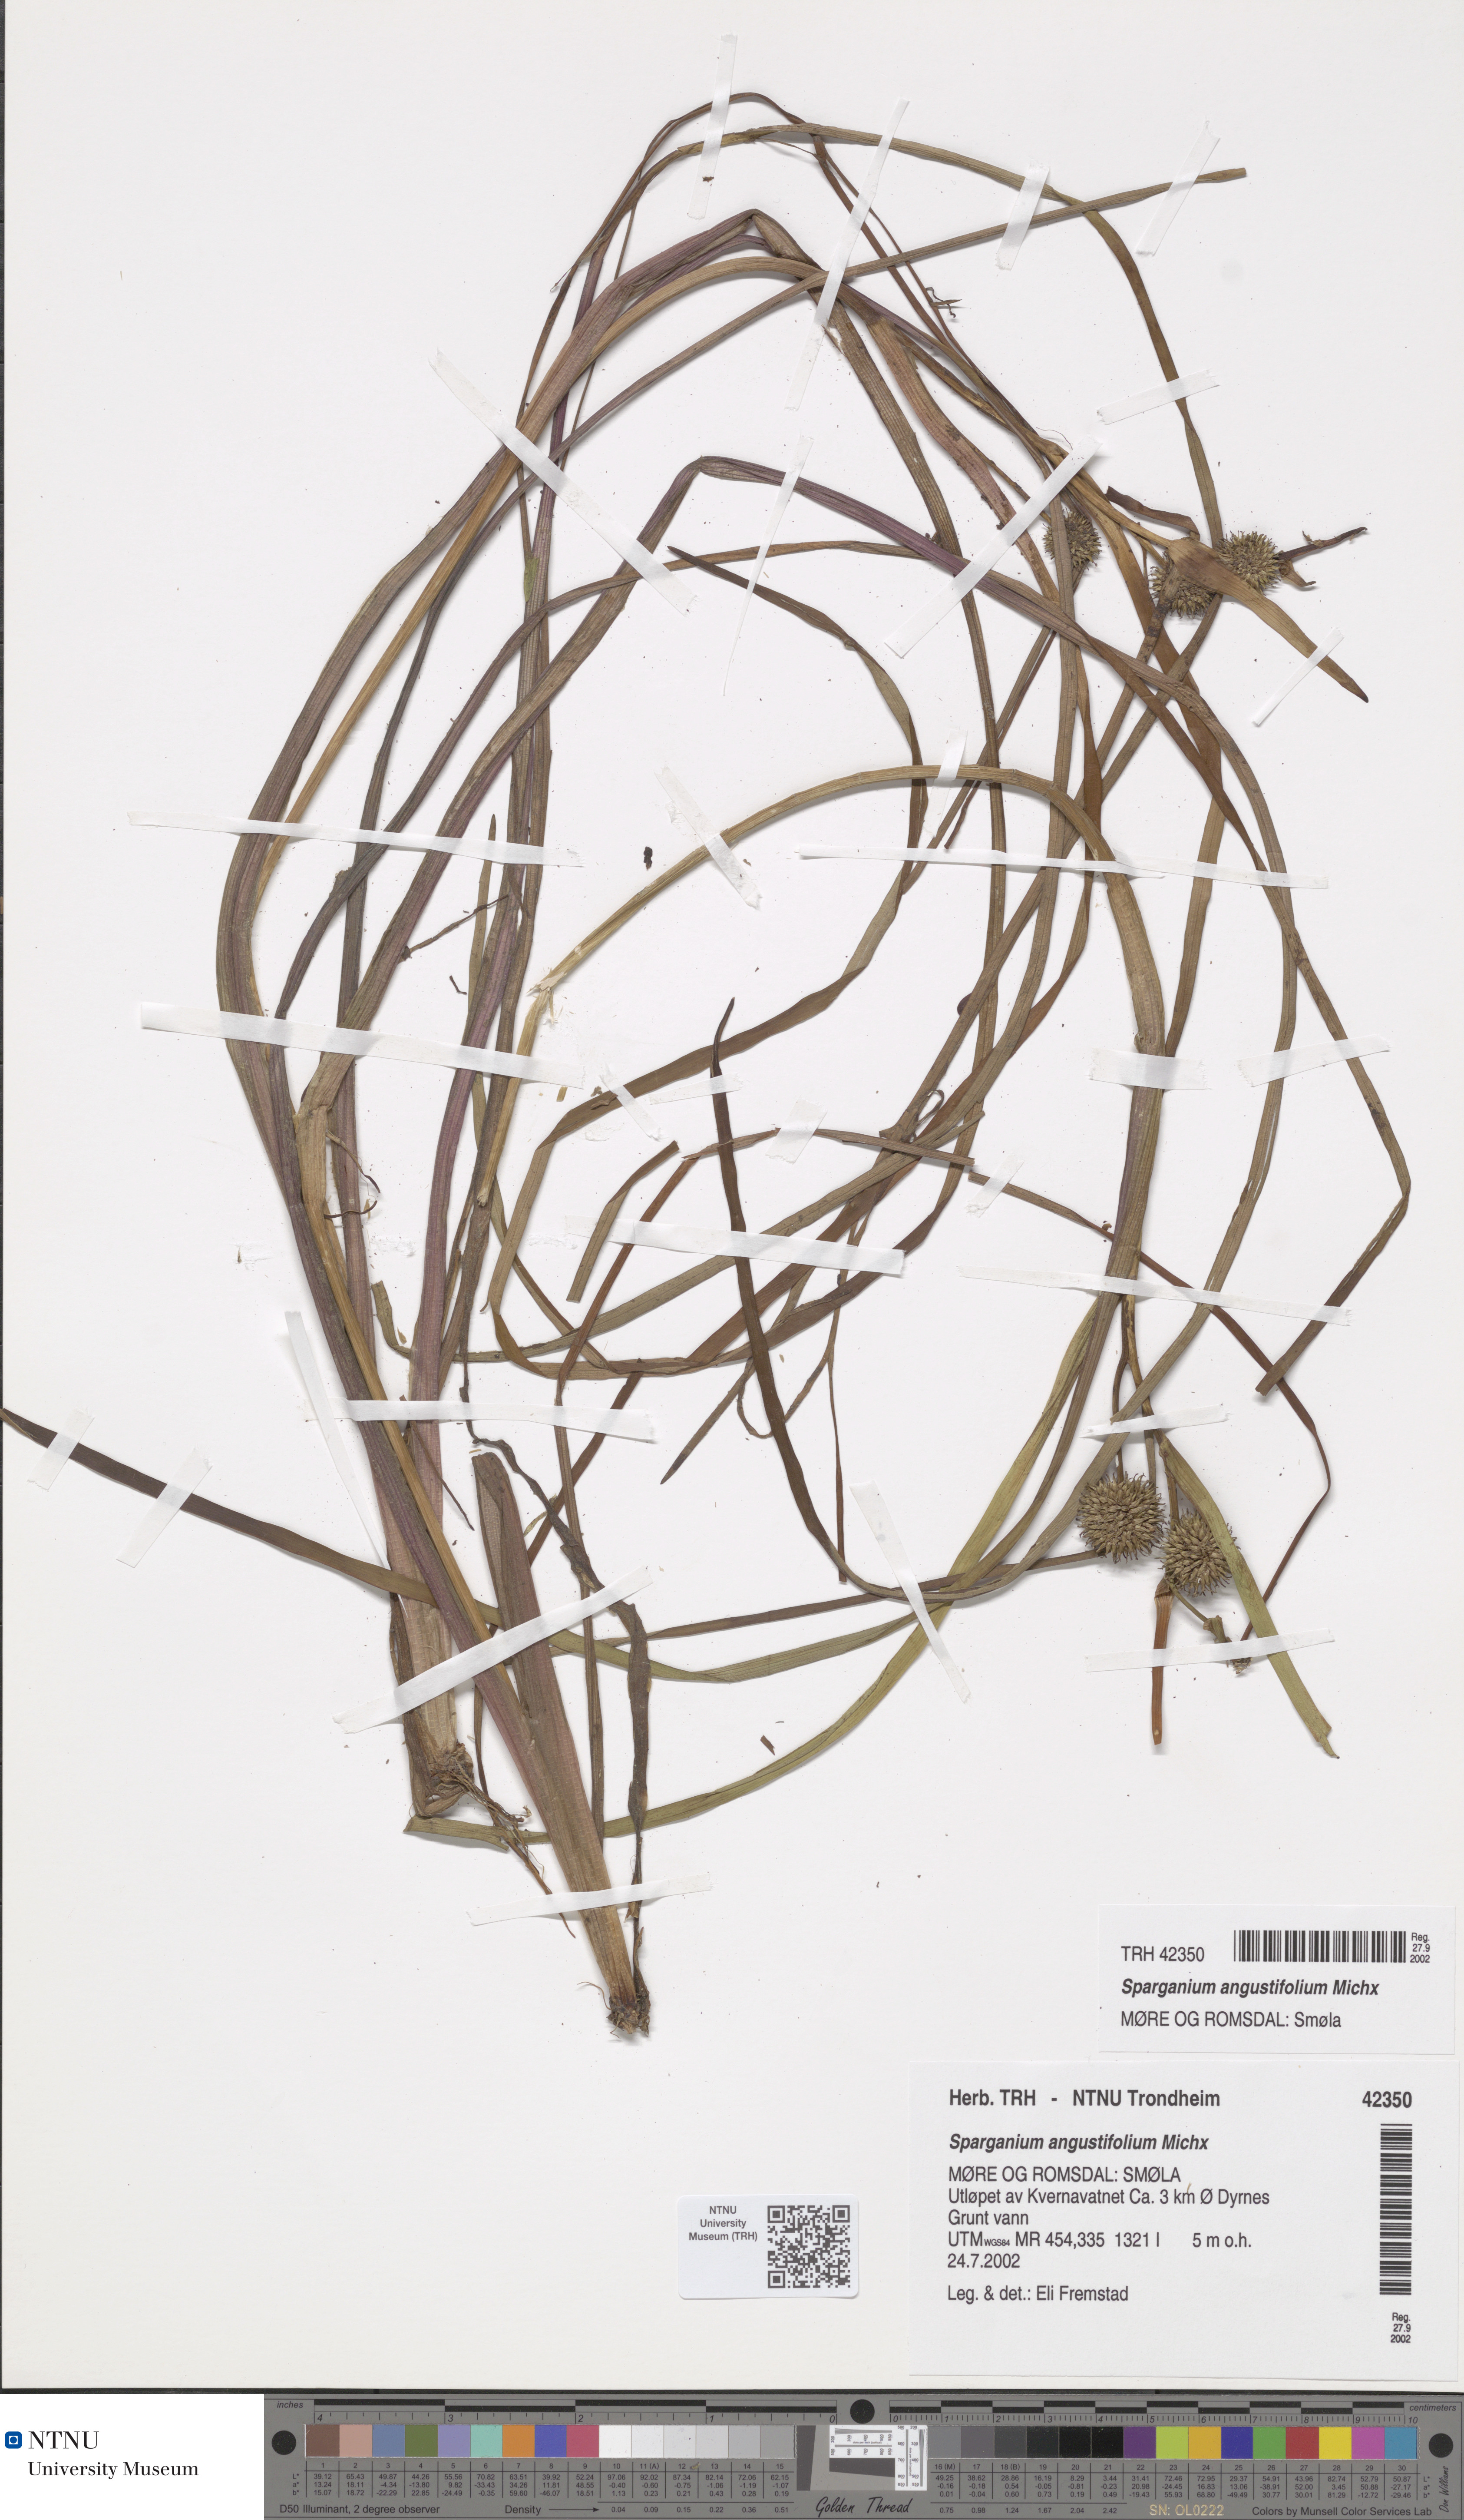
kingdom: Plantae
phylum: Tracheophyta
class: Liliopsida
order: Poales
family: Typhaceae
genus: Sparganium
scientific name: Sparganium angustifolium
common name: Floating bur-reed
